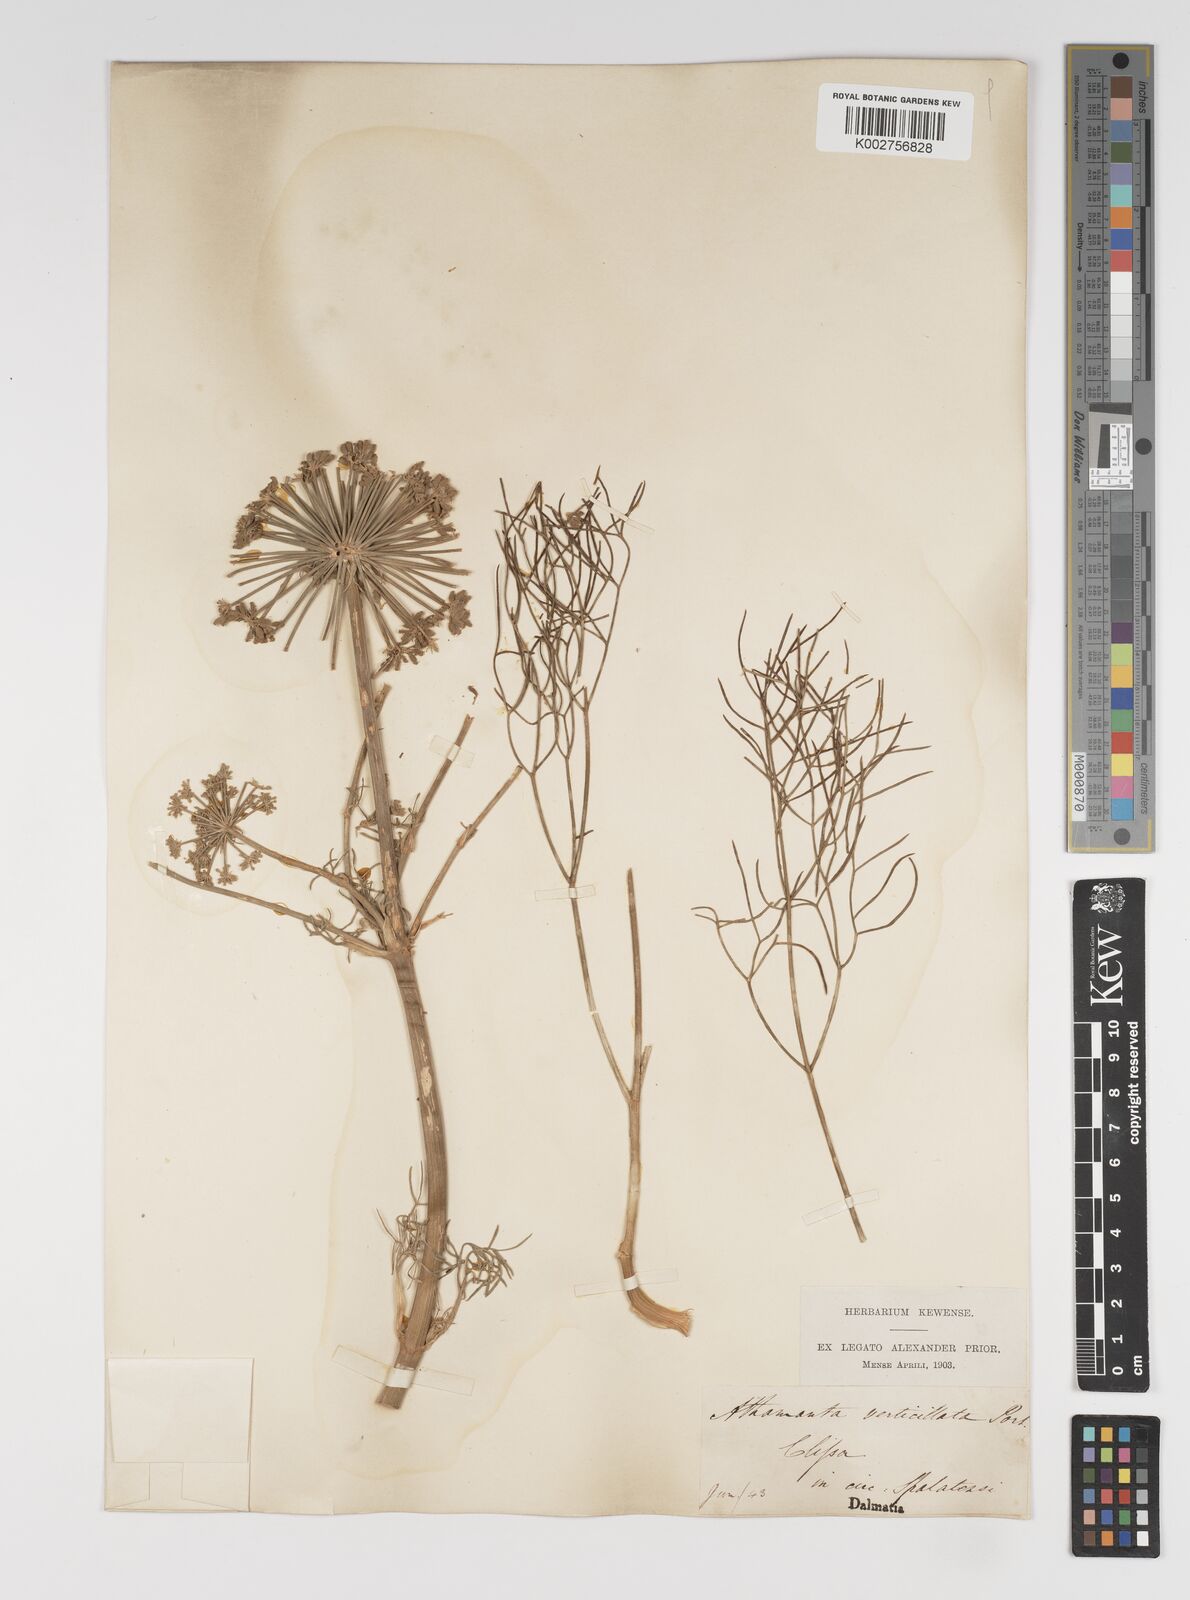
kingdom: Plantae
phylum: Tracheophyta
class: Magnoliopsida
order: Apiales
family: Apiaceae
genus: Athamanta
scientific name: Athamanta ramosissima
